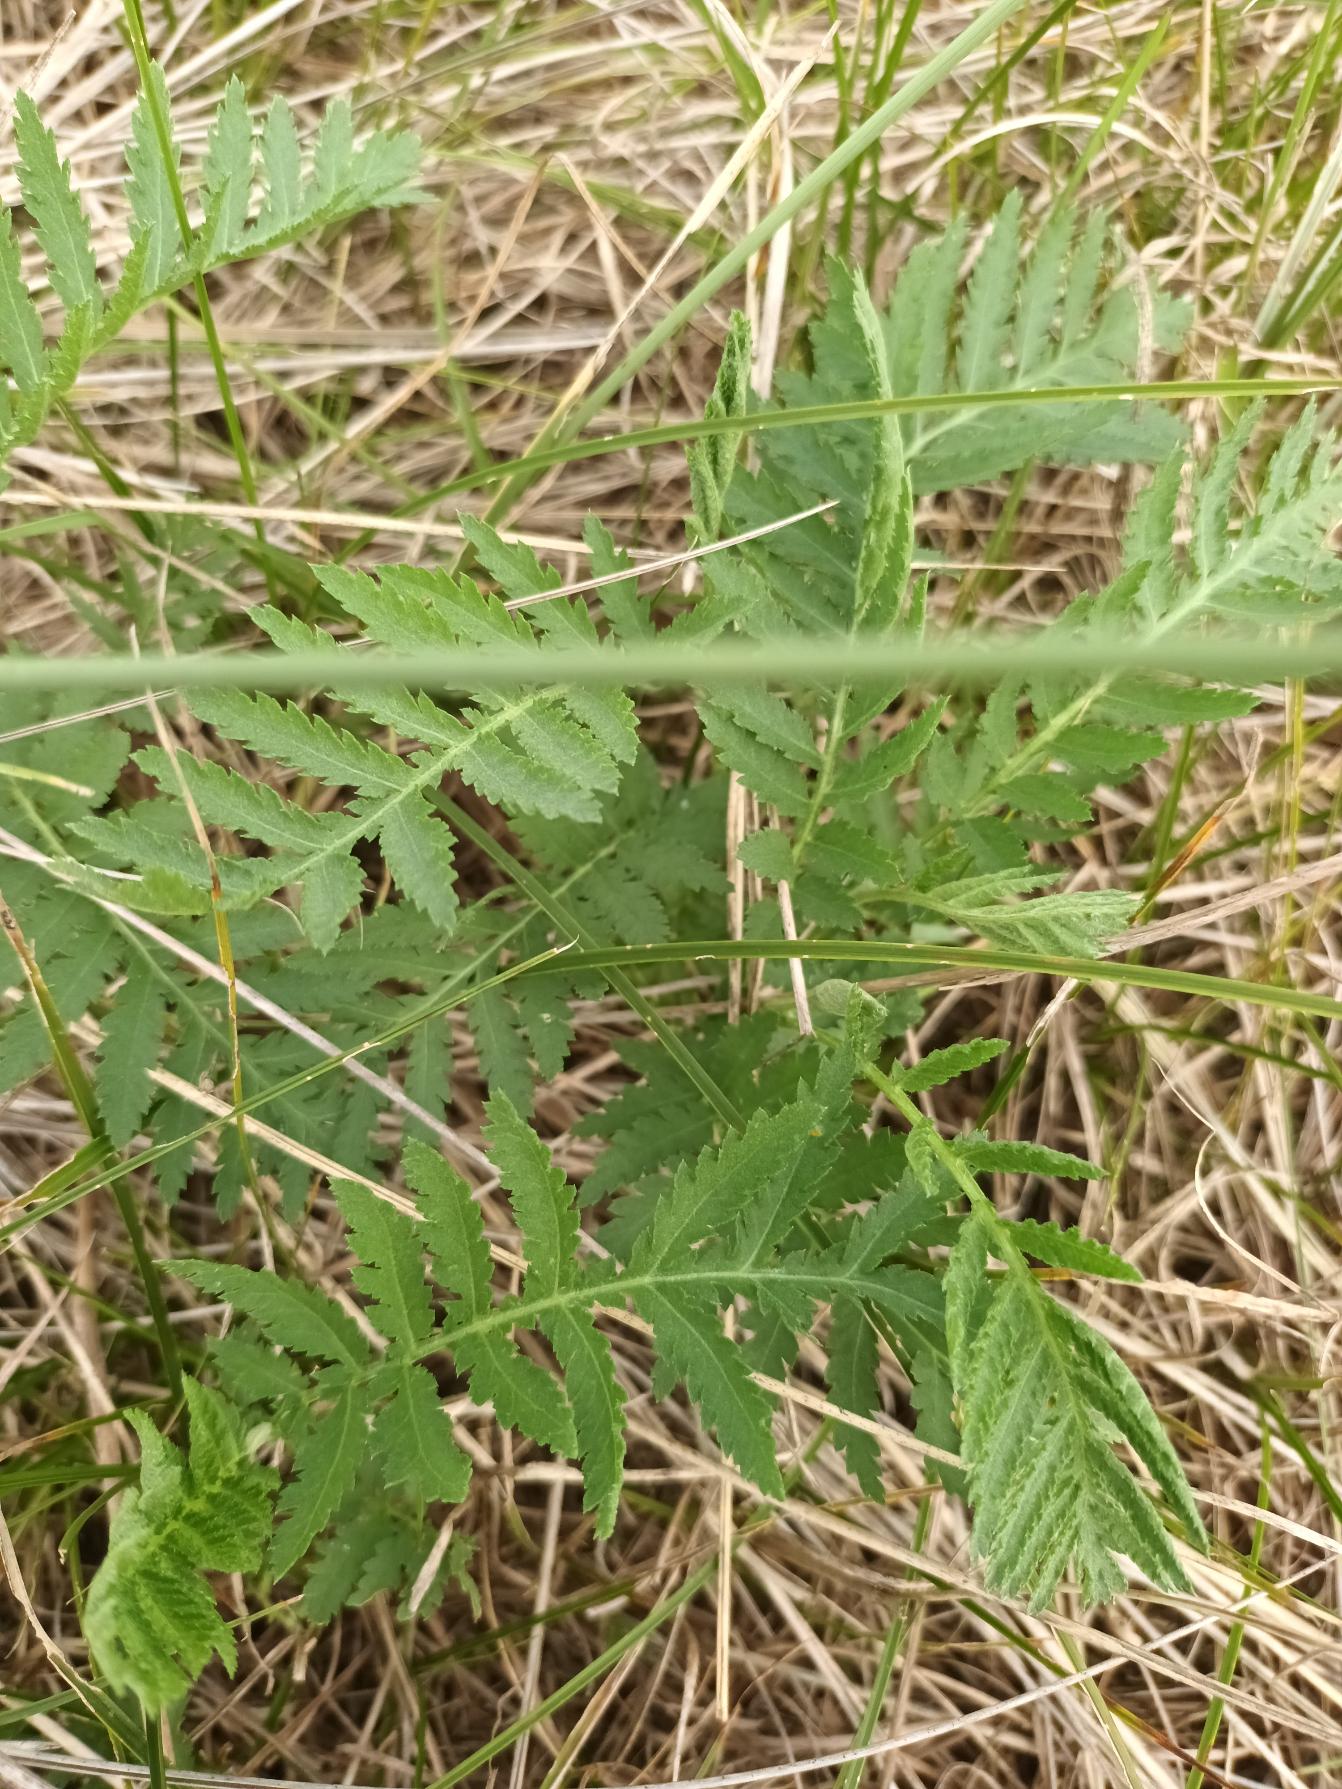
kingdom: Plantae
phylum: Tracheophyta
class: Magnoliopsida
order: Asterales
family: Asteraceae
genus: Tanacetum
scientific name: Tanacetum vulgare
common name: Rejnfan
